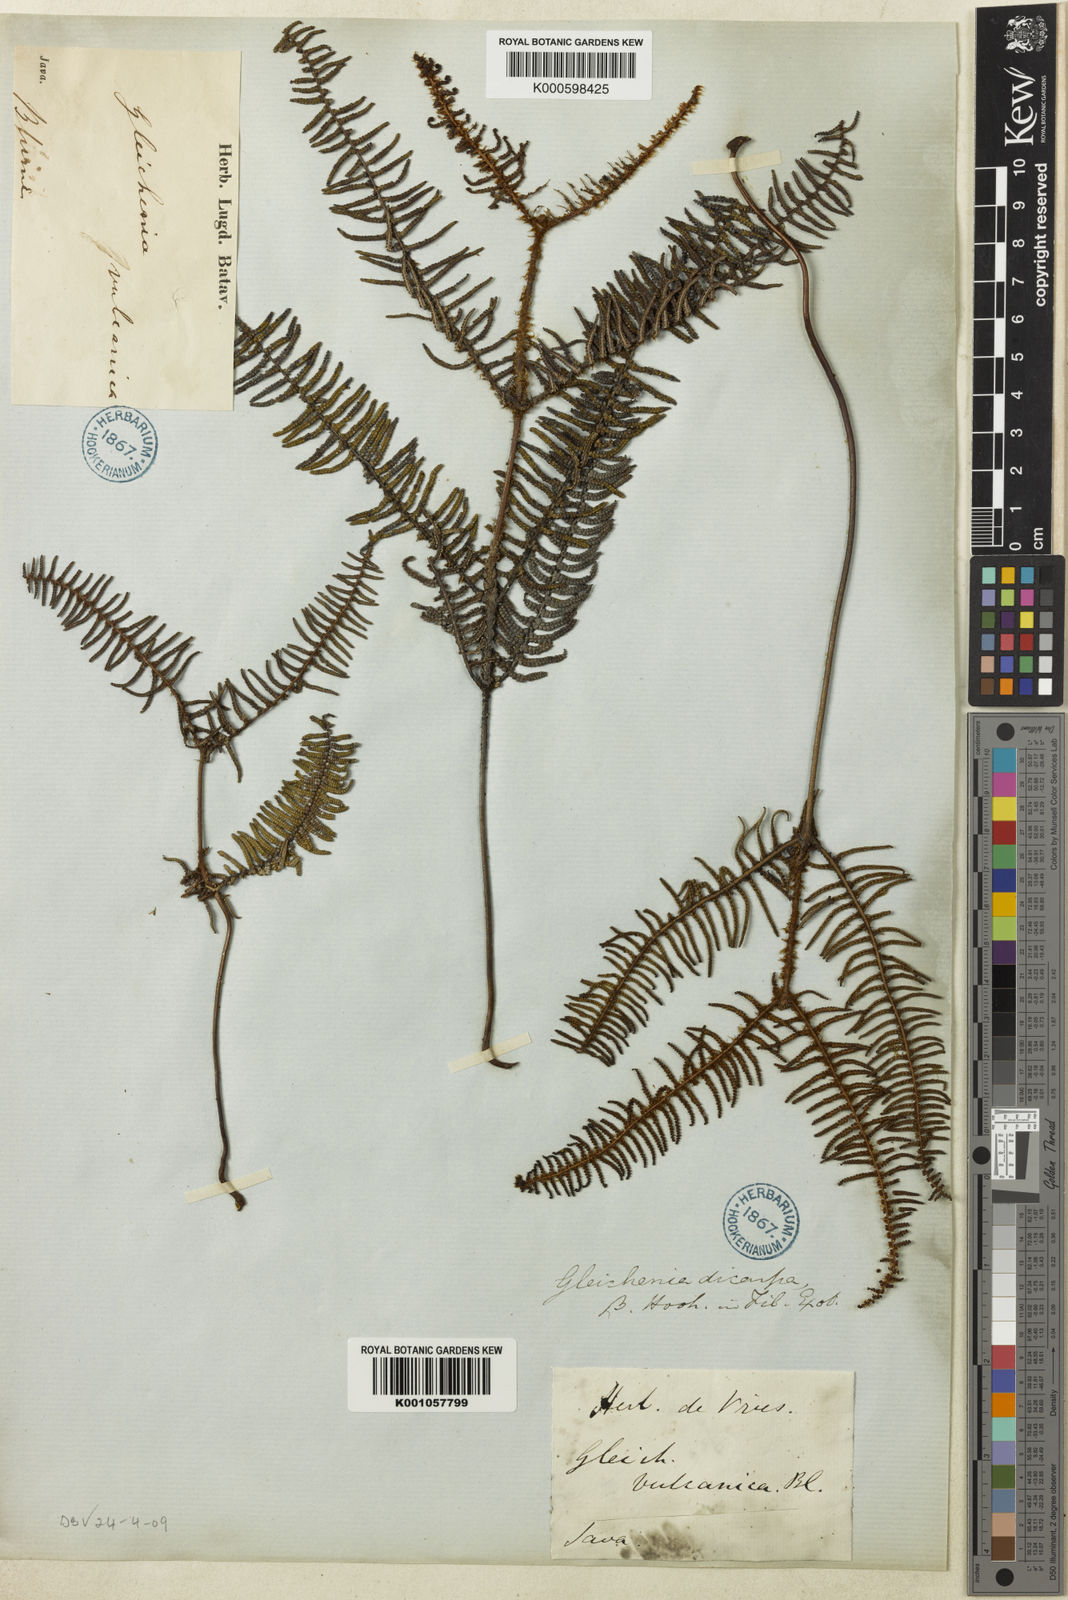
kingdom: Plantae
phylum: Tracheophyta
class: Polypodiopsida
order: Gleicheniales
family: Gleicheniaceae
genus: Gleichenia
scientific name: Gleichenia vulcanica
